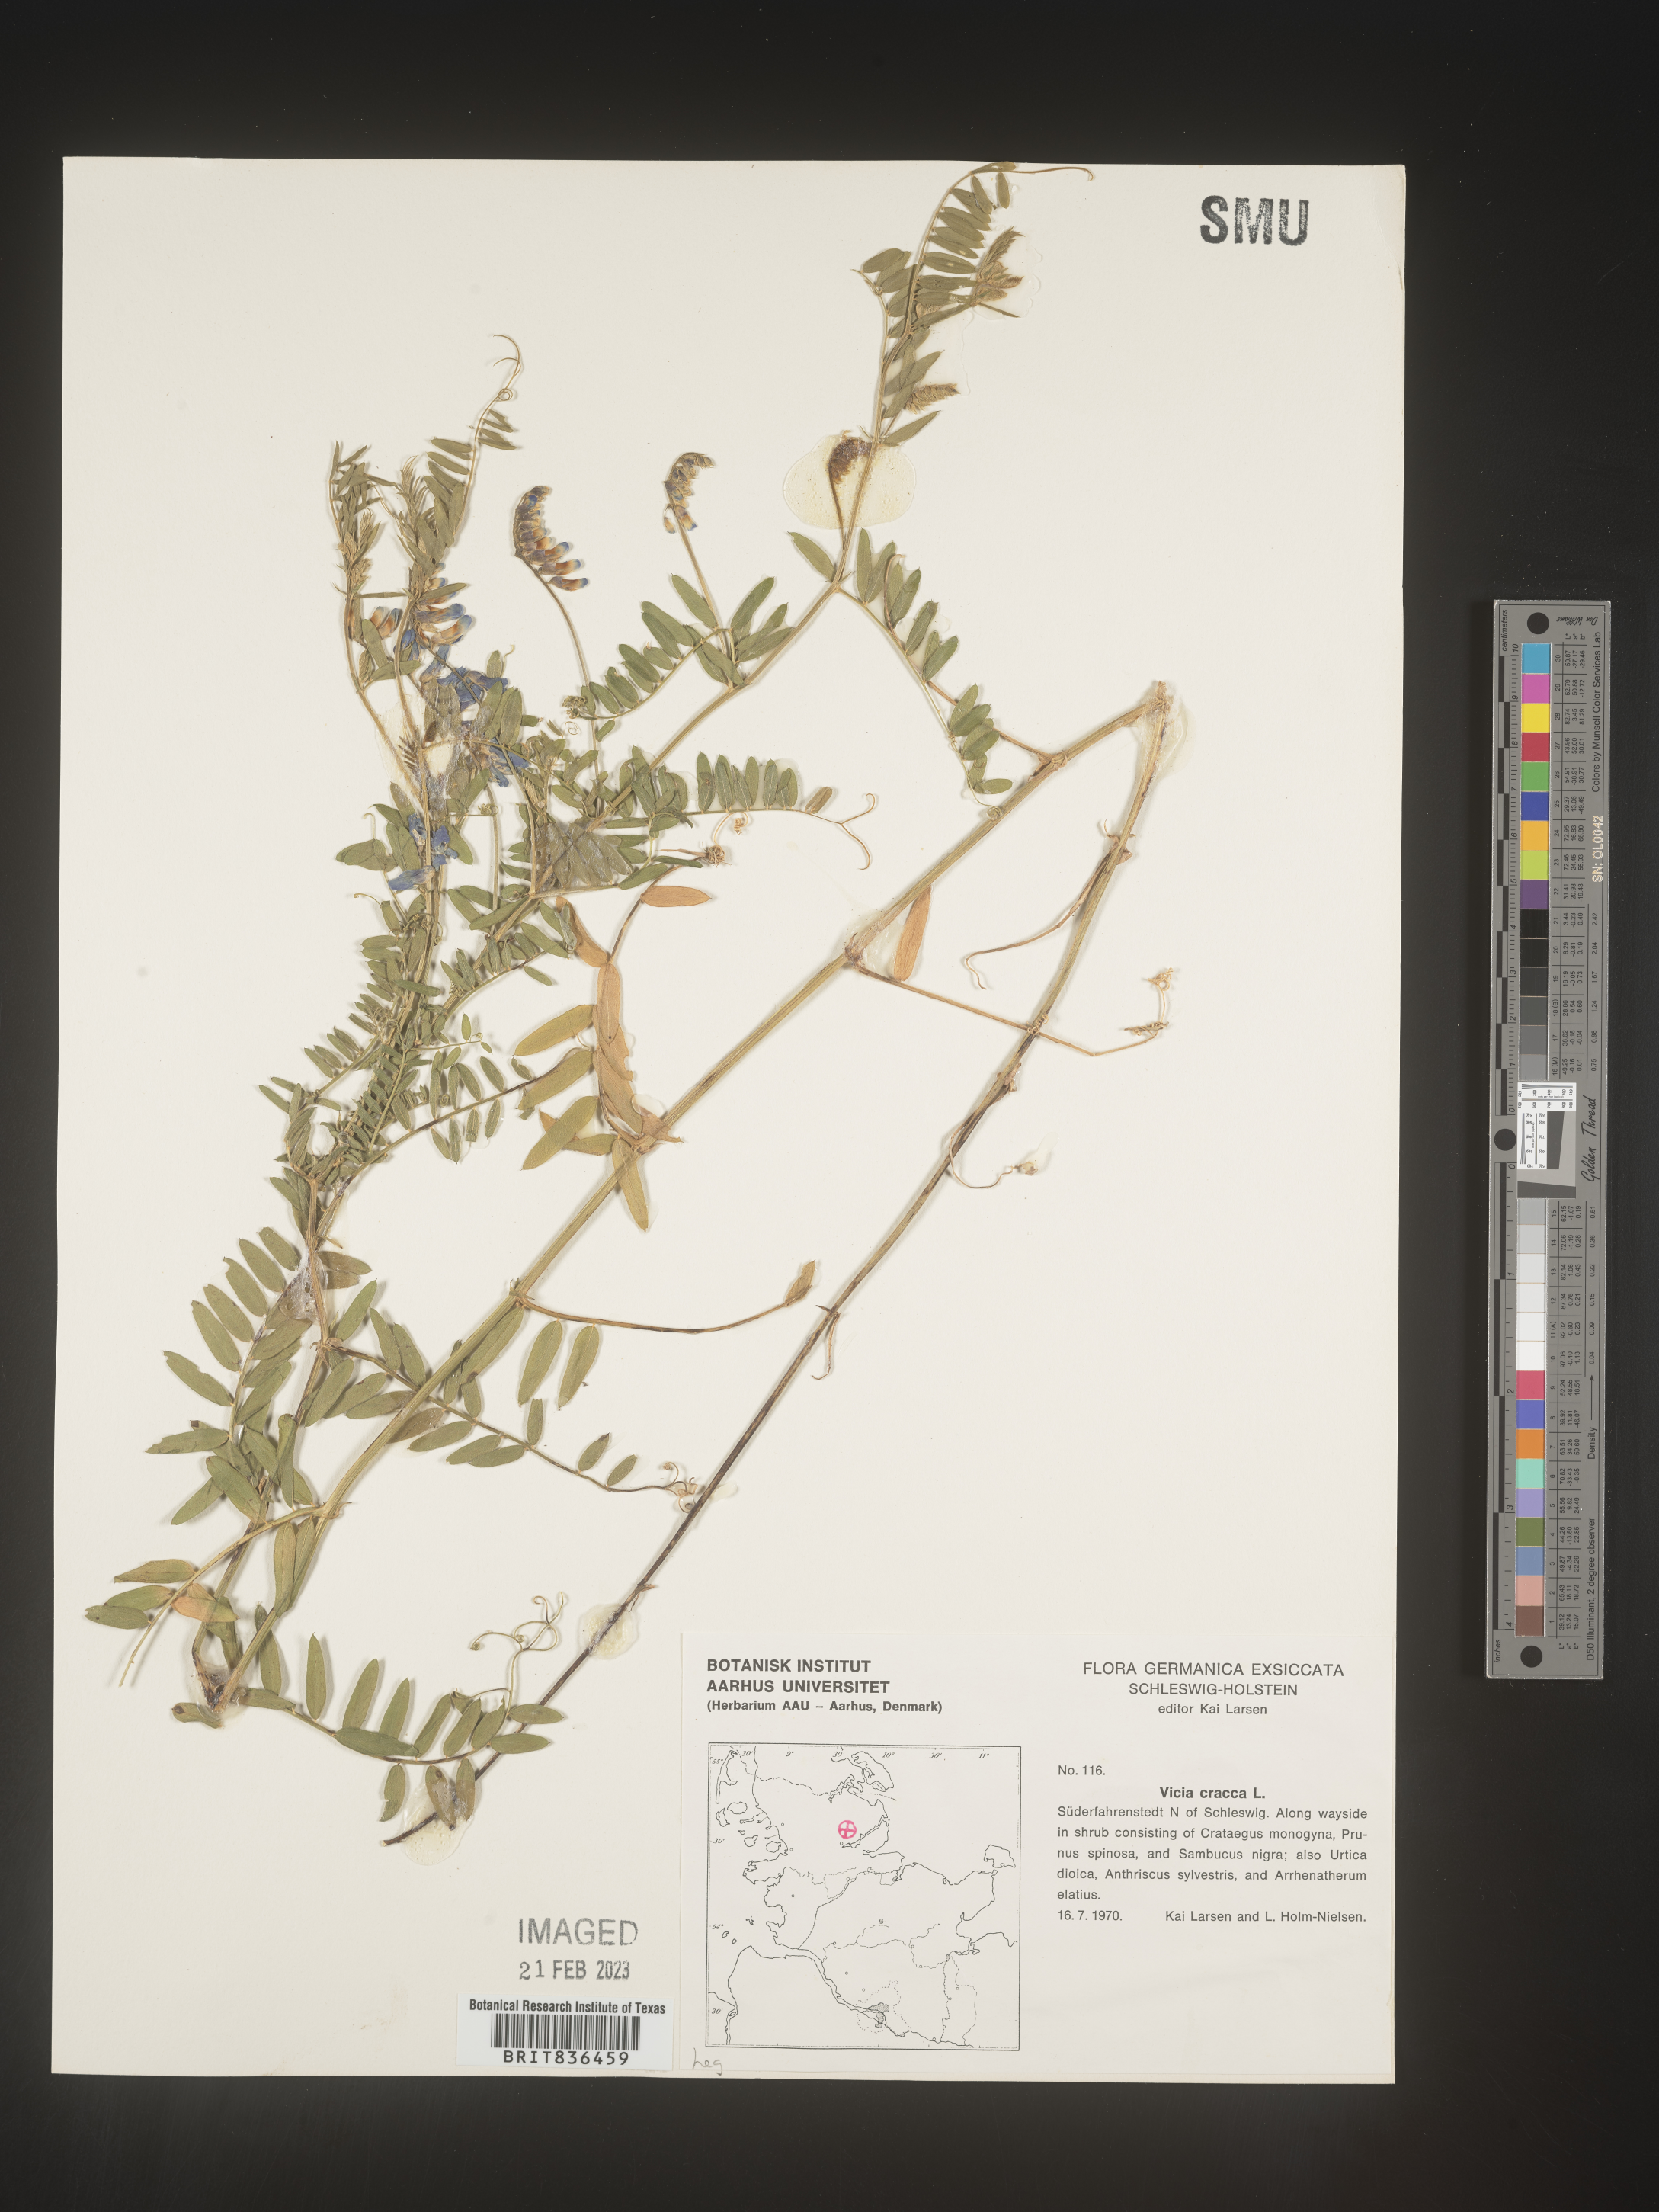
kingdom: Plantae
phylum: Tracheophyta
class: Magnoliopsida
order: Fabales
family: Fabaceae
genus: Vicia
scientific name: Vicia
